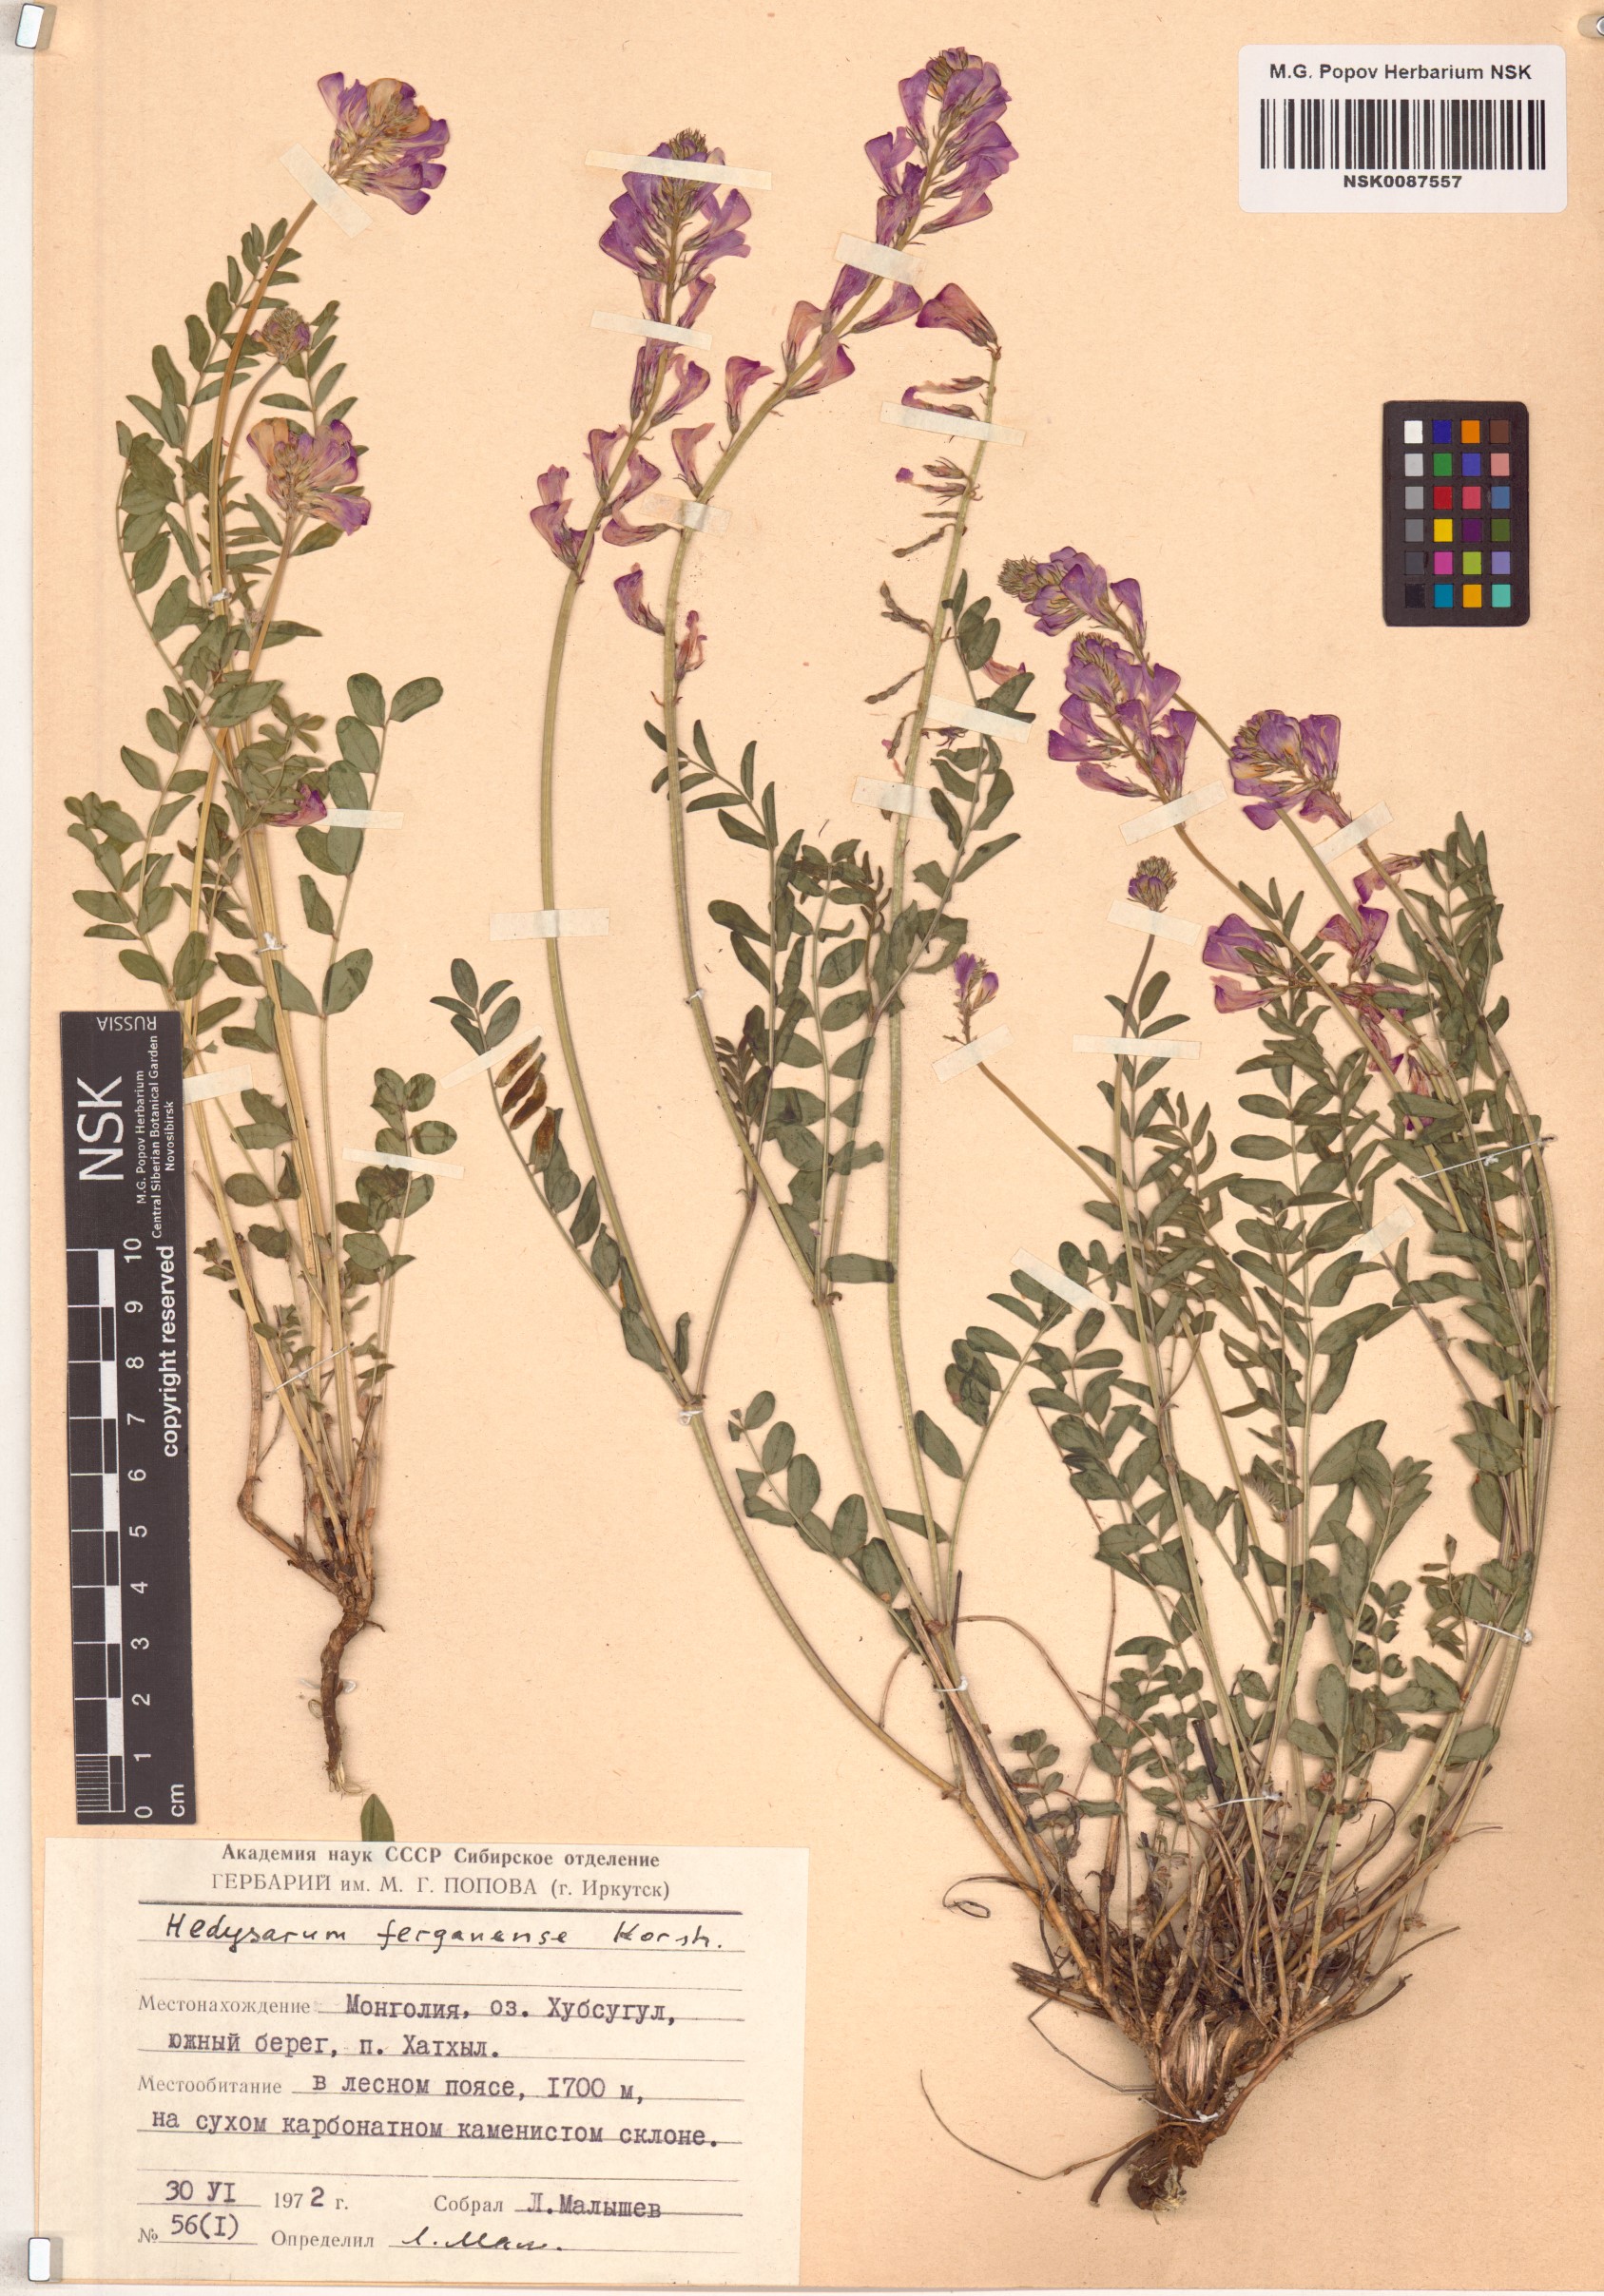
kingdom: Plantae
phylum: Tracheophyta
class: Magnoliopsida
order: Fabales
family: Fabaceae
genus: Hedysarum
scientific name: Hedysarum ferganense
